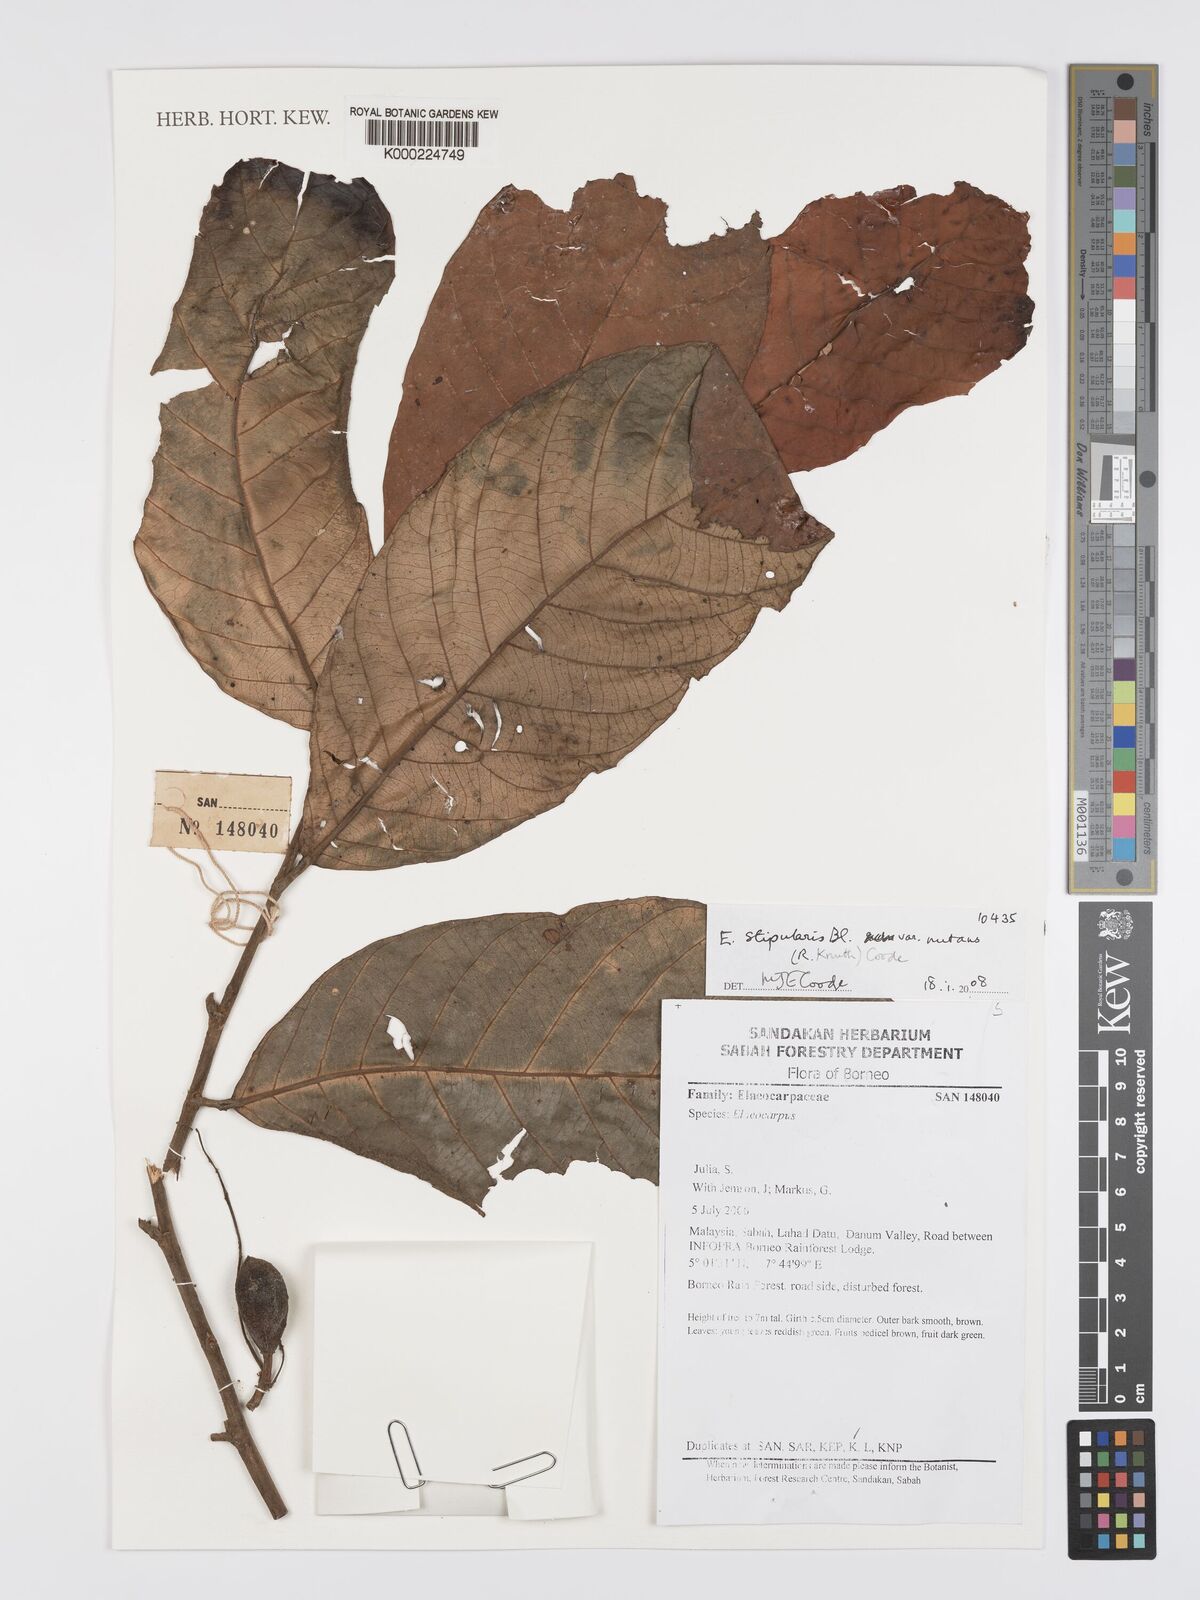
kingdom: Plantae
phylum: Tracheophyta
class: Magnoliopsida
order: Oxalidales
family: Elaeocarpaceae
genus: Elaeocarpus
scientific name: Elaeocarpus stipularis
